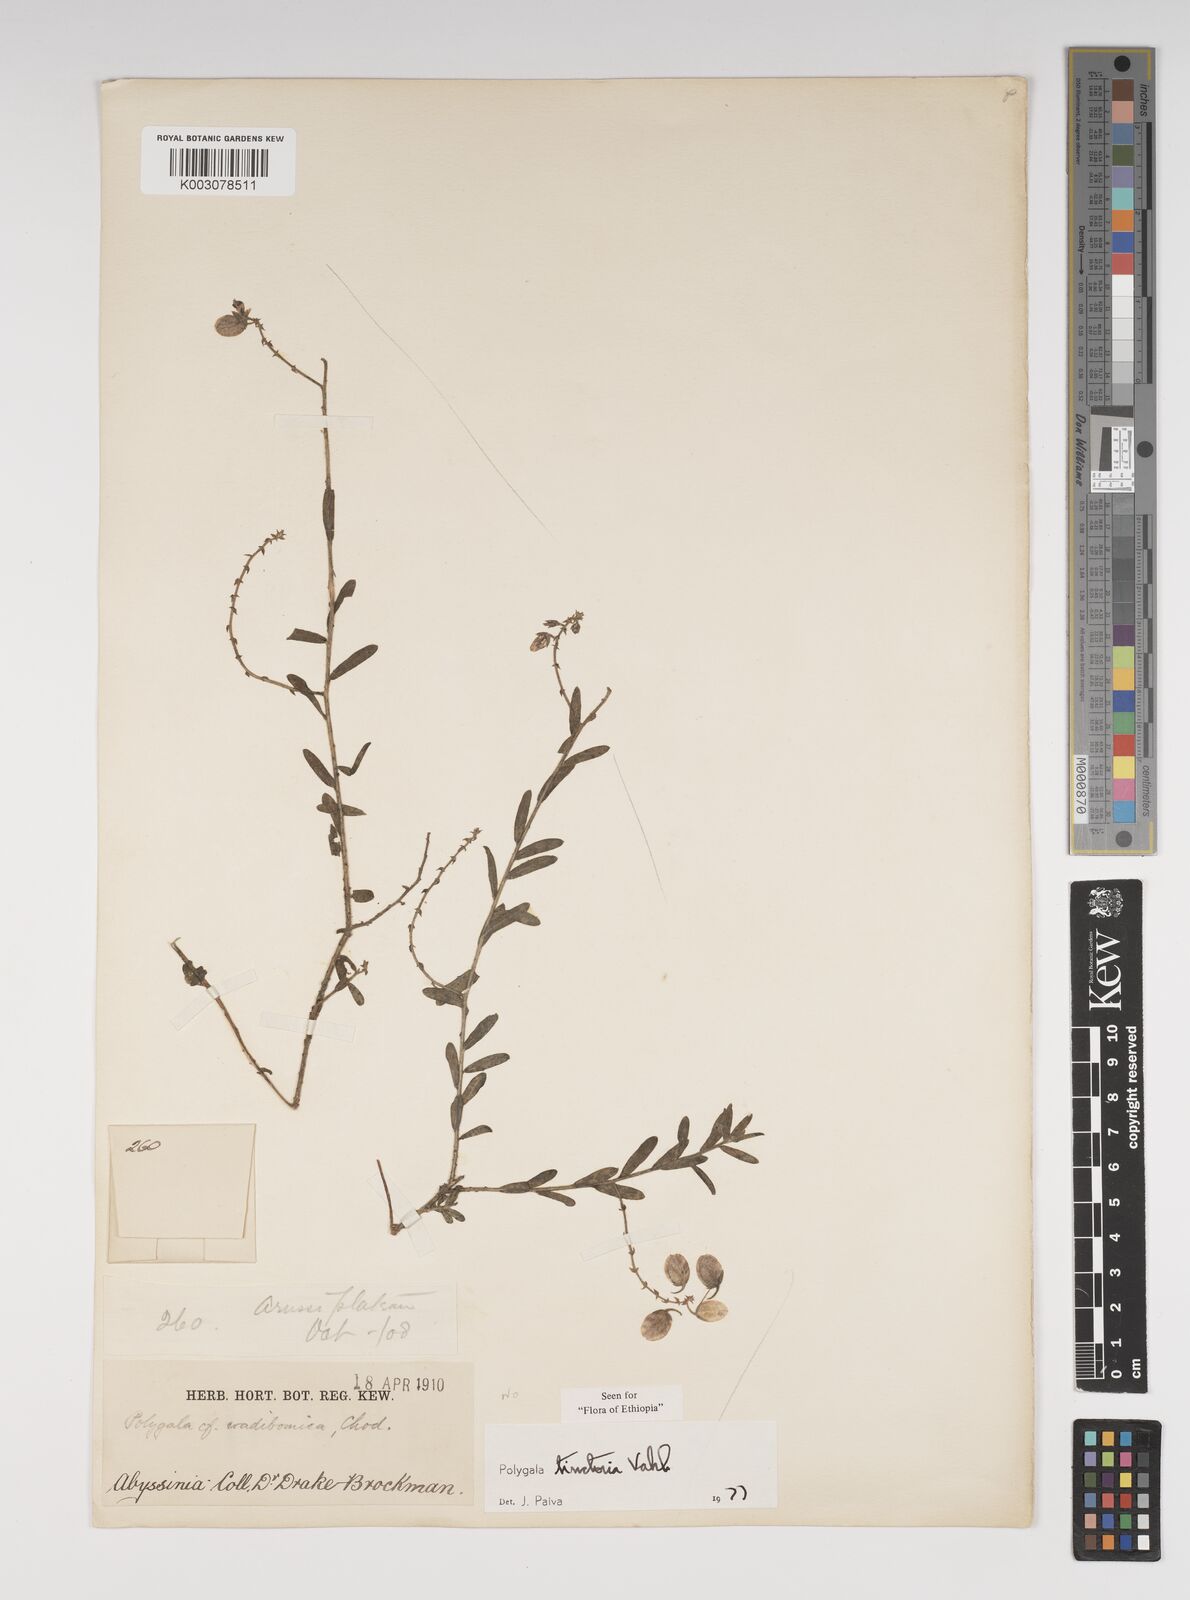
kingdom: Plantae
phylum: Tracheophyta
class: Magnoliopsida
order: Fabales
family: Polygalaceae
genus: Polygala
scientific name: Polygala tinctoria
